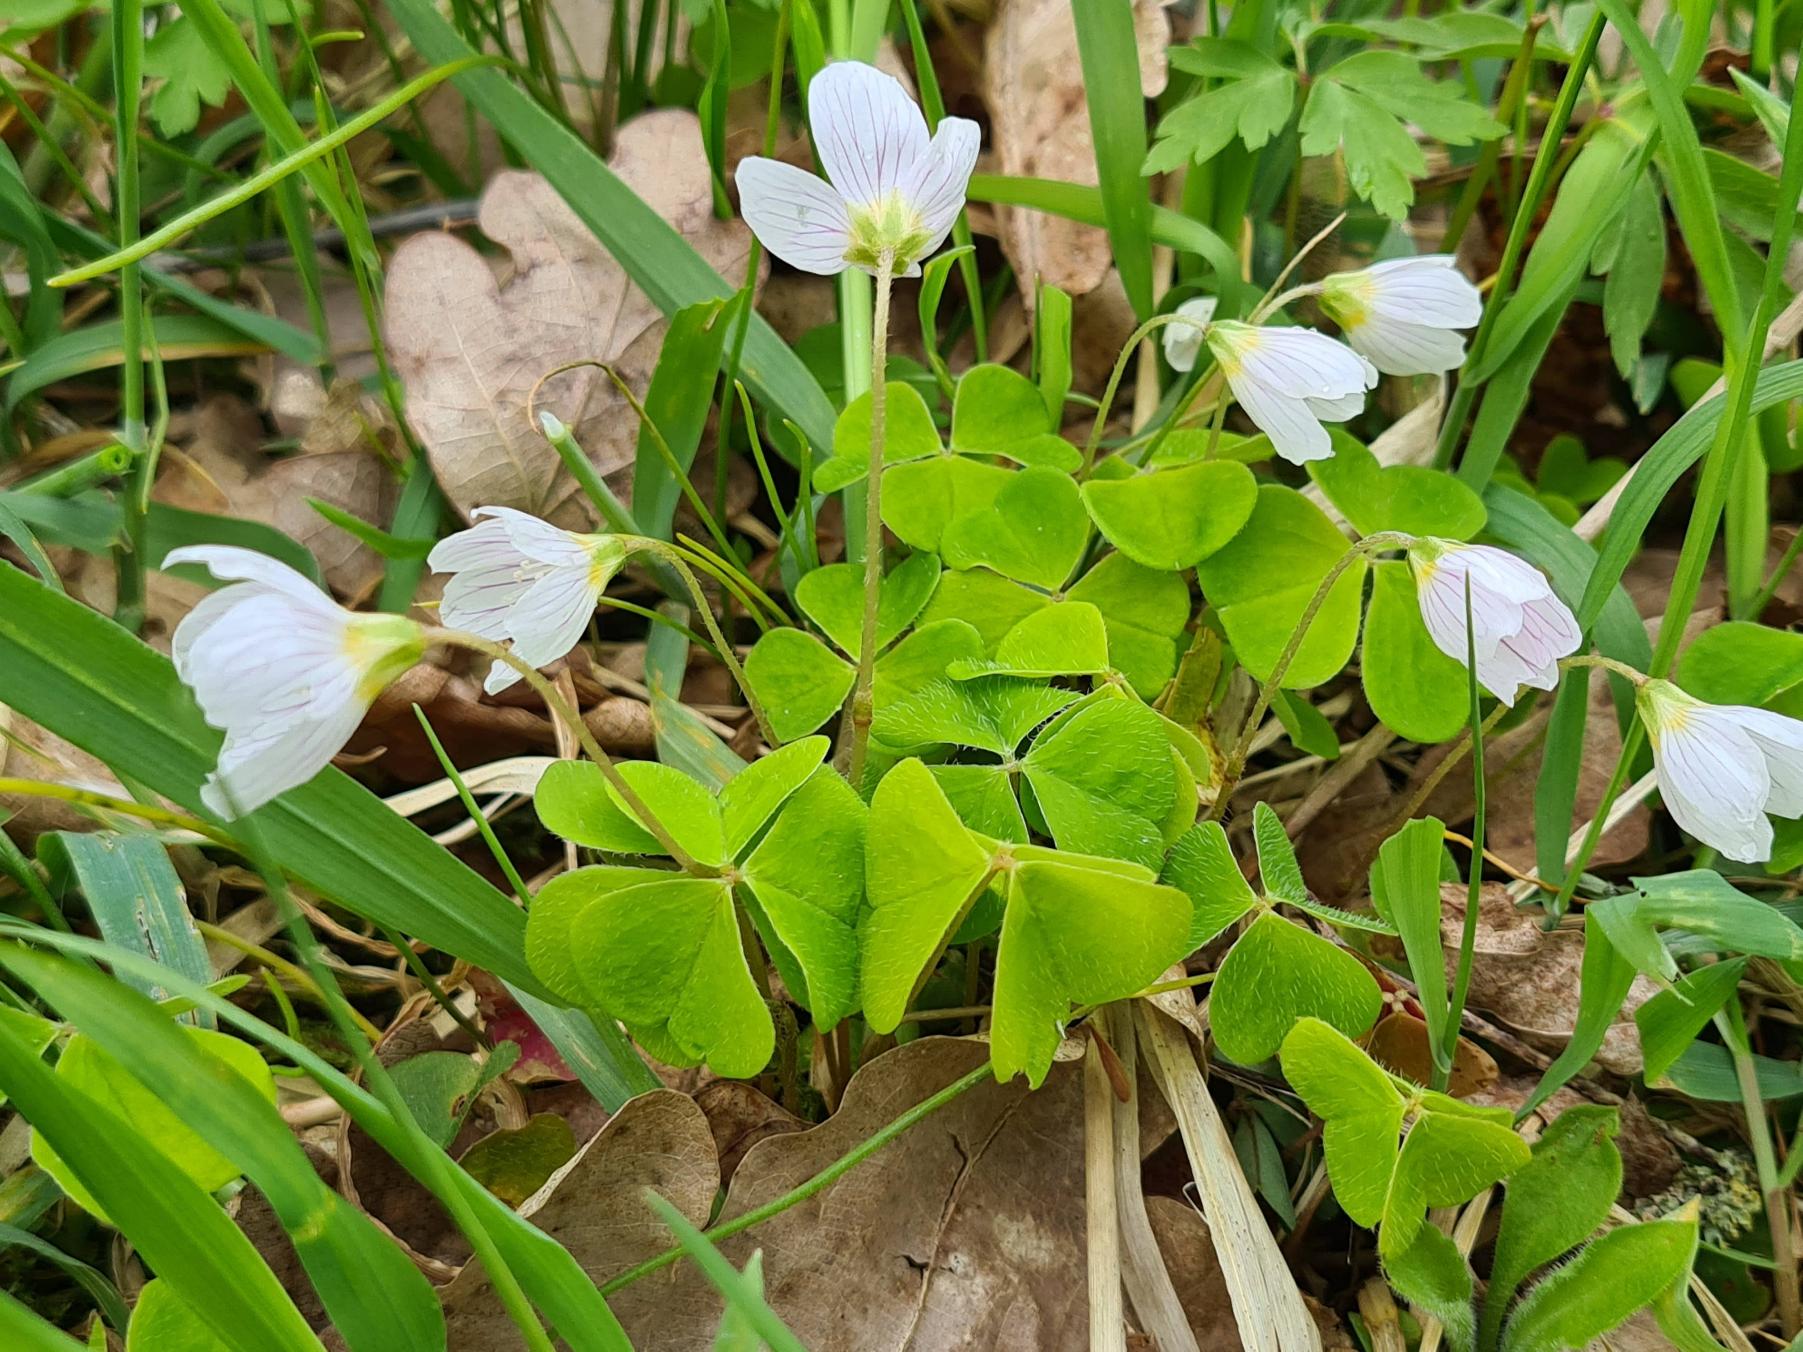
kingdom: Plantae
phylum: Tracheophyta
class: Magnoliopsida
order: Oxalidales
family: Oxalidaceae
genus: Oxalis
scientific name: Oxalis acetosella
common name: Skovsyre
